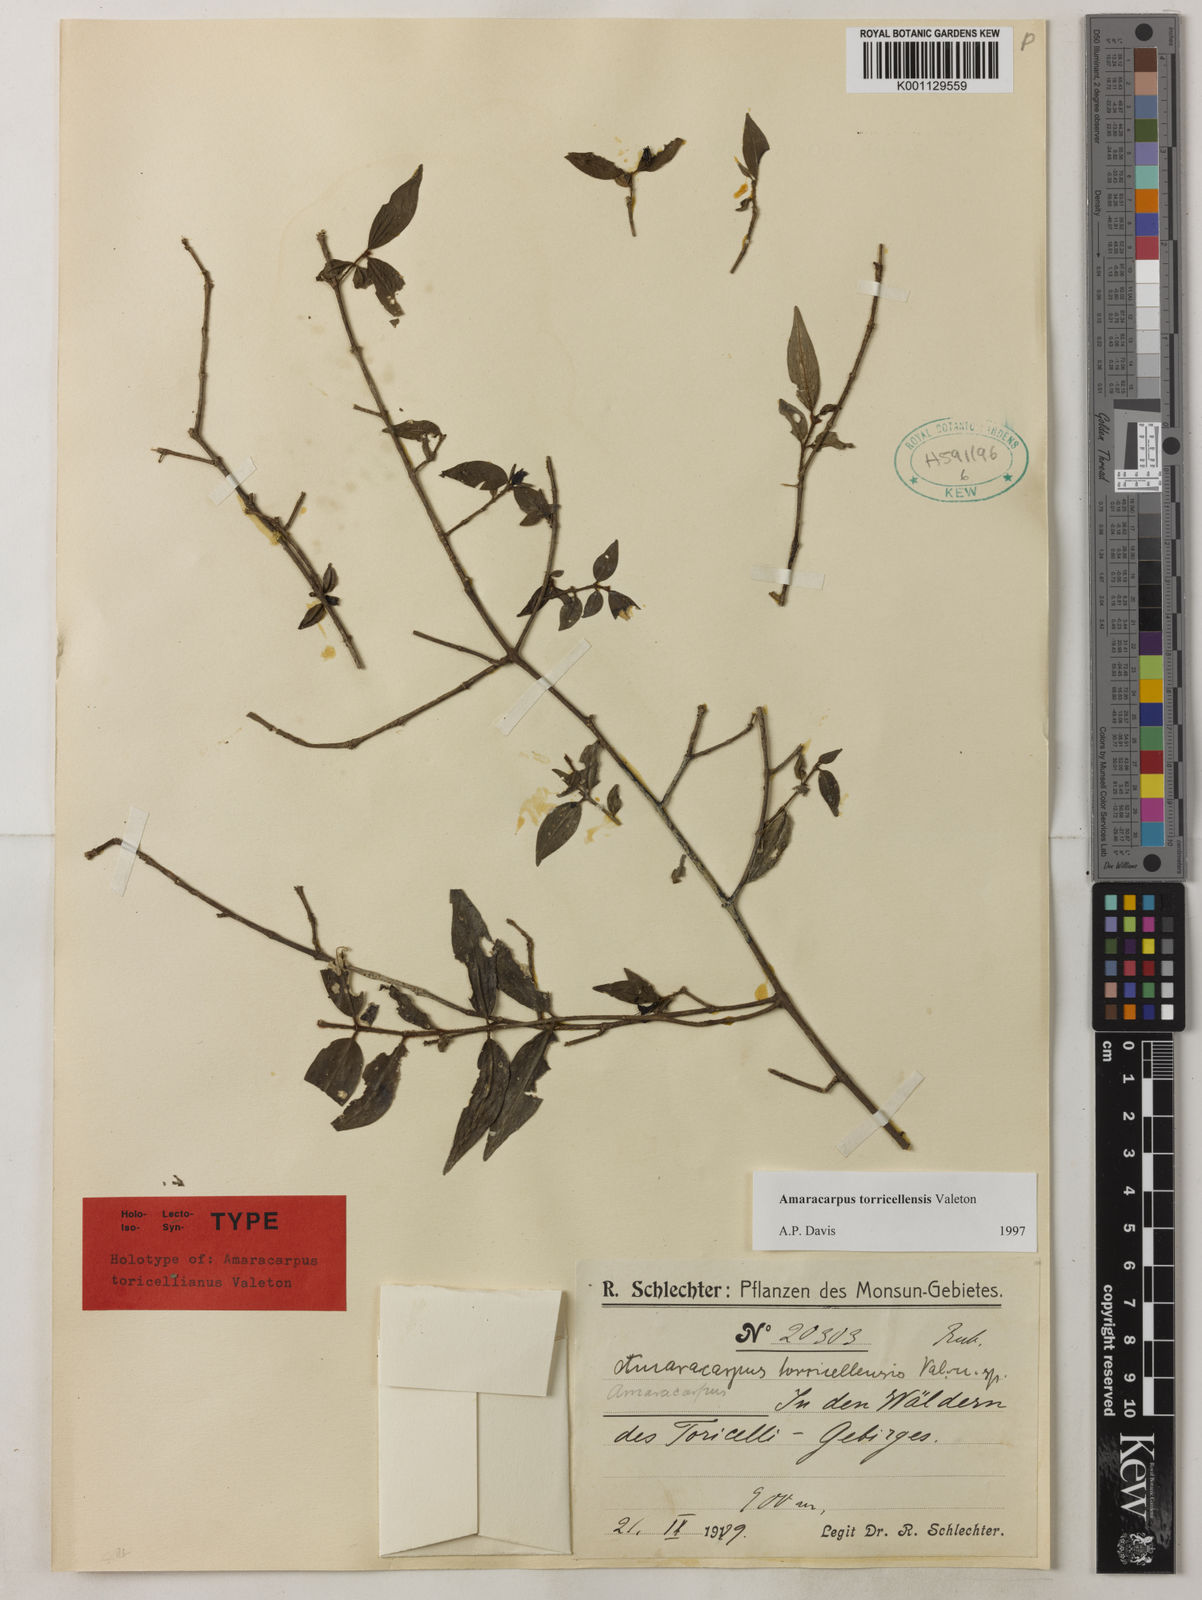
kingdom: Plantae
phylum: Tracheophyta
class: Magnoliopsida
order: Gentianales
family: Rubiaceae
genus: Amaracarpus
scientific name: Amaracarpus torricellensis
